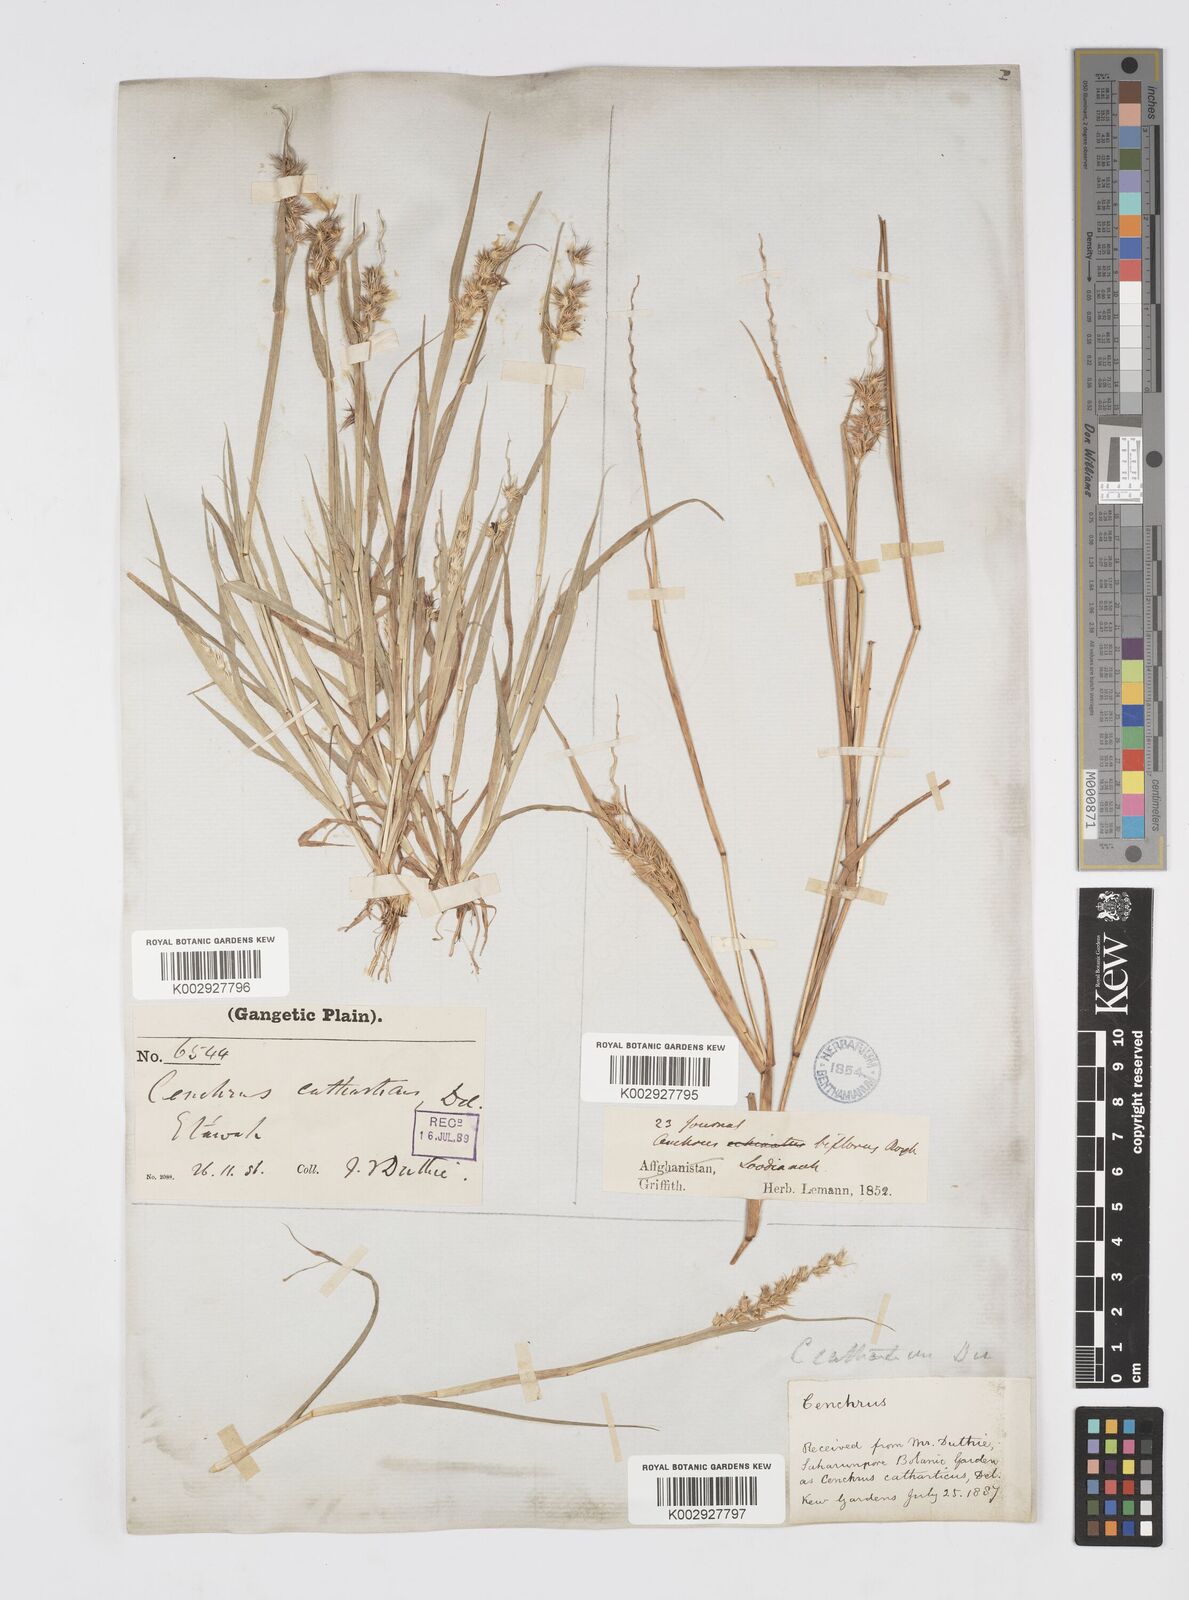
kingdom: Plantae
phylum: Tracheophyta
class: Liliopsida
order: Poales
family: Poaceae
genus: Cenchrus
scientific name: Cenchrus biflorus
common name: Indian sandbur
